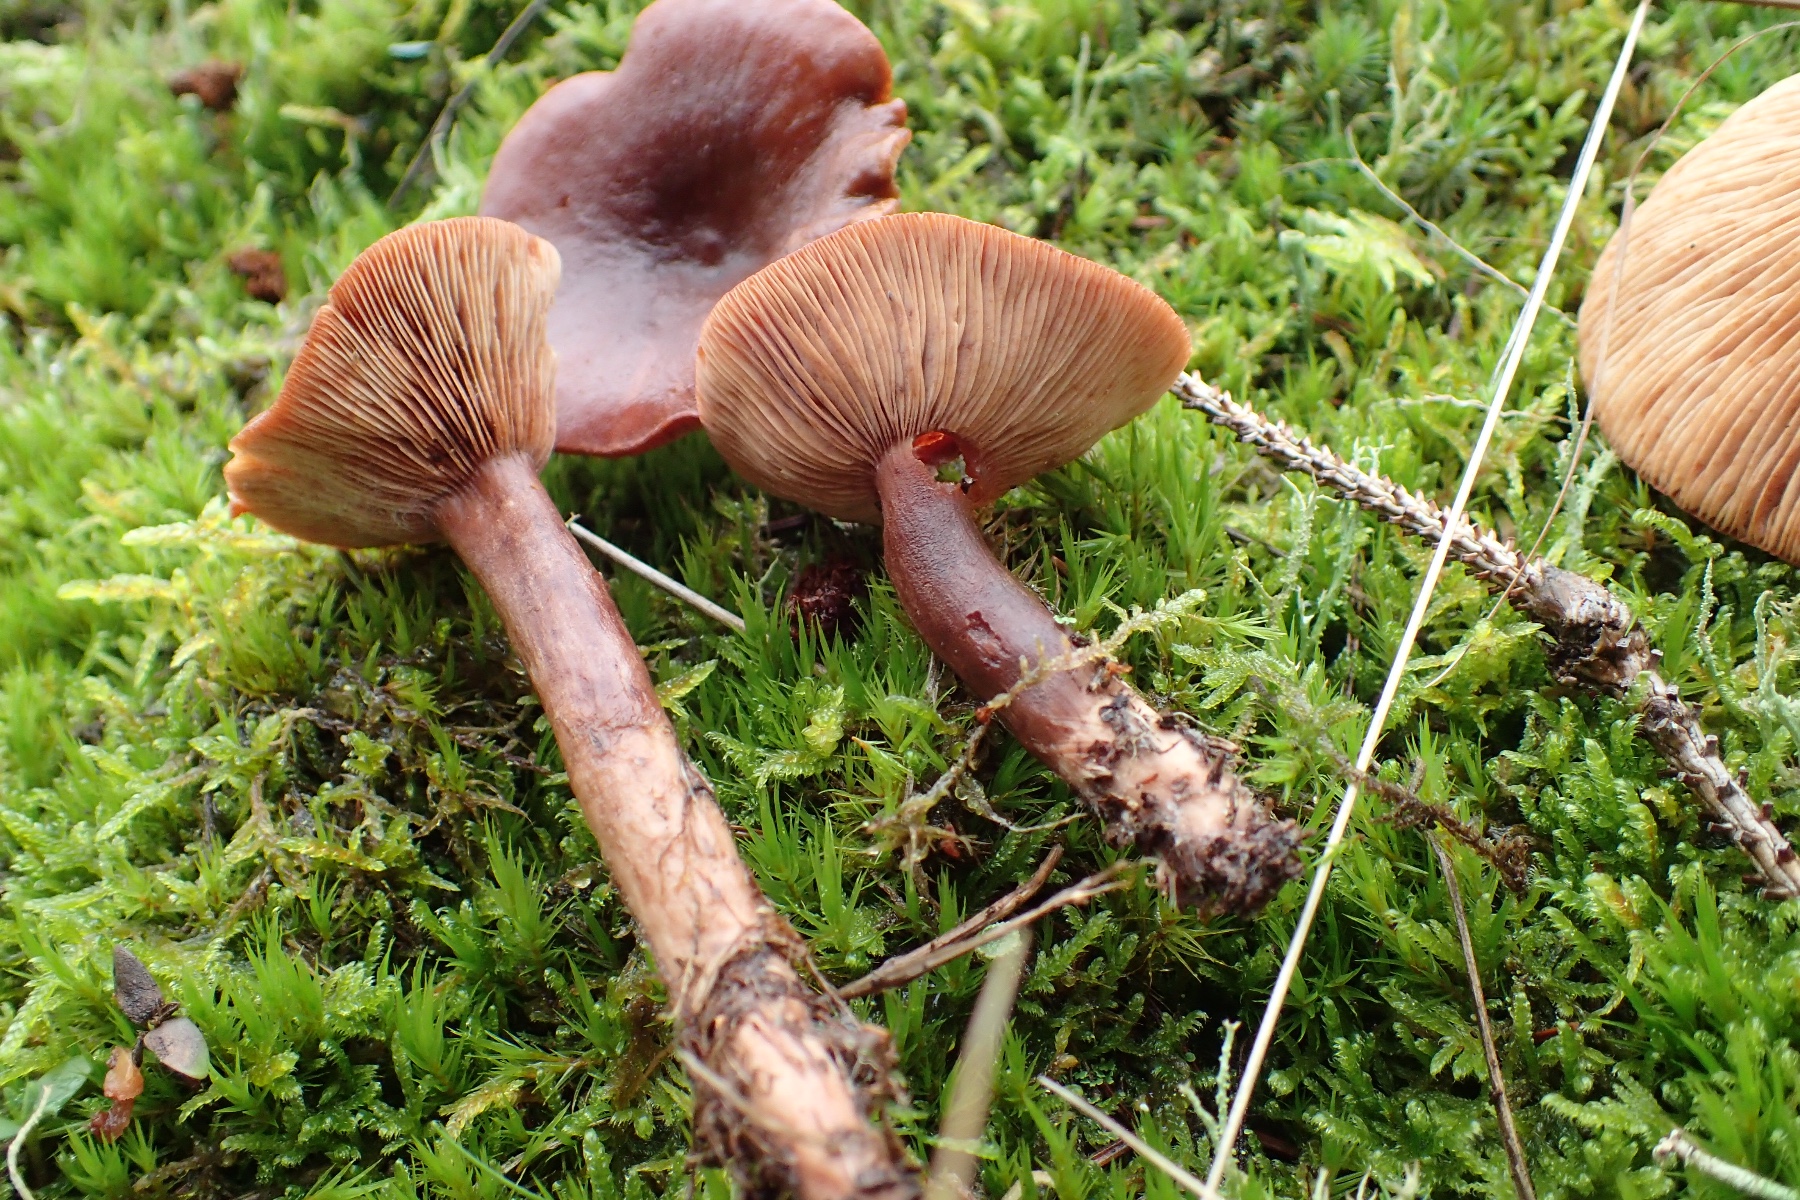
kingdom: Fungi
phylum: Basidiomycota
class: Agaricomycetes
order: Russulales
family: Russulaceae
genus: Lactarius
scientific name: Lactarius rufus
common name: rødbrun mælkehat
